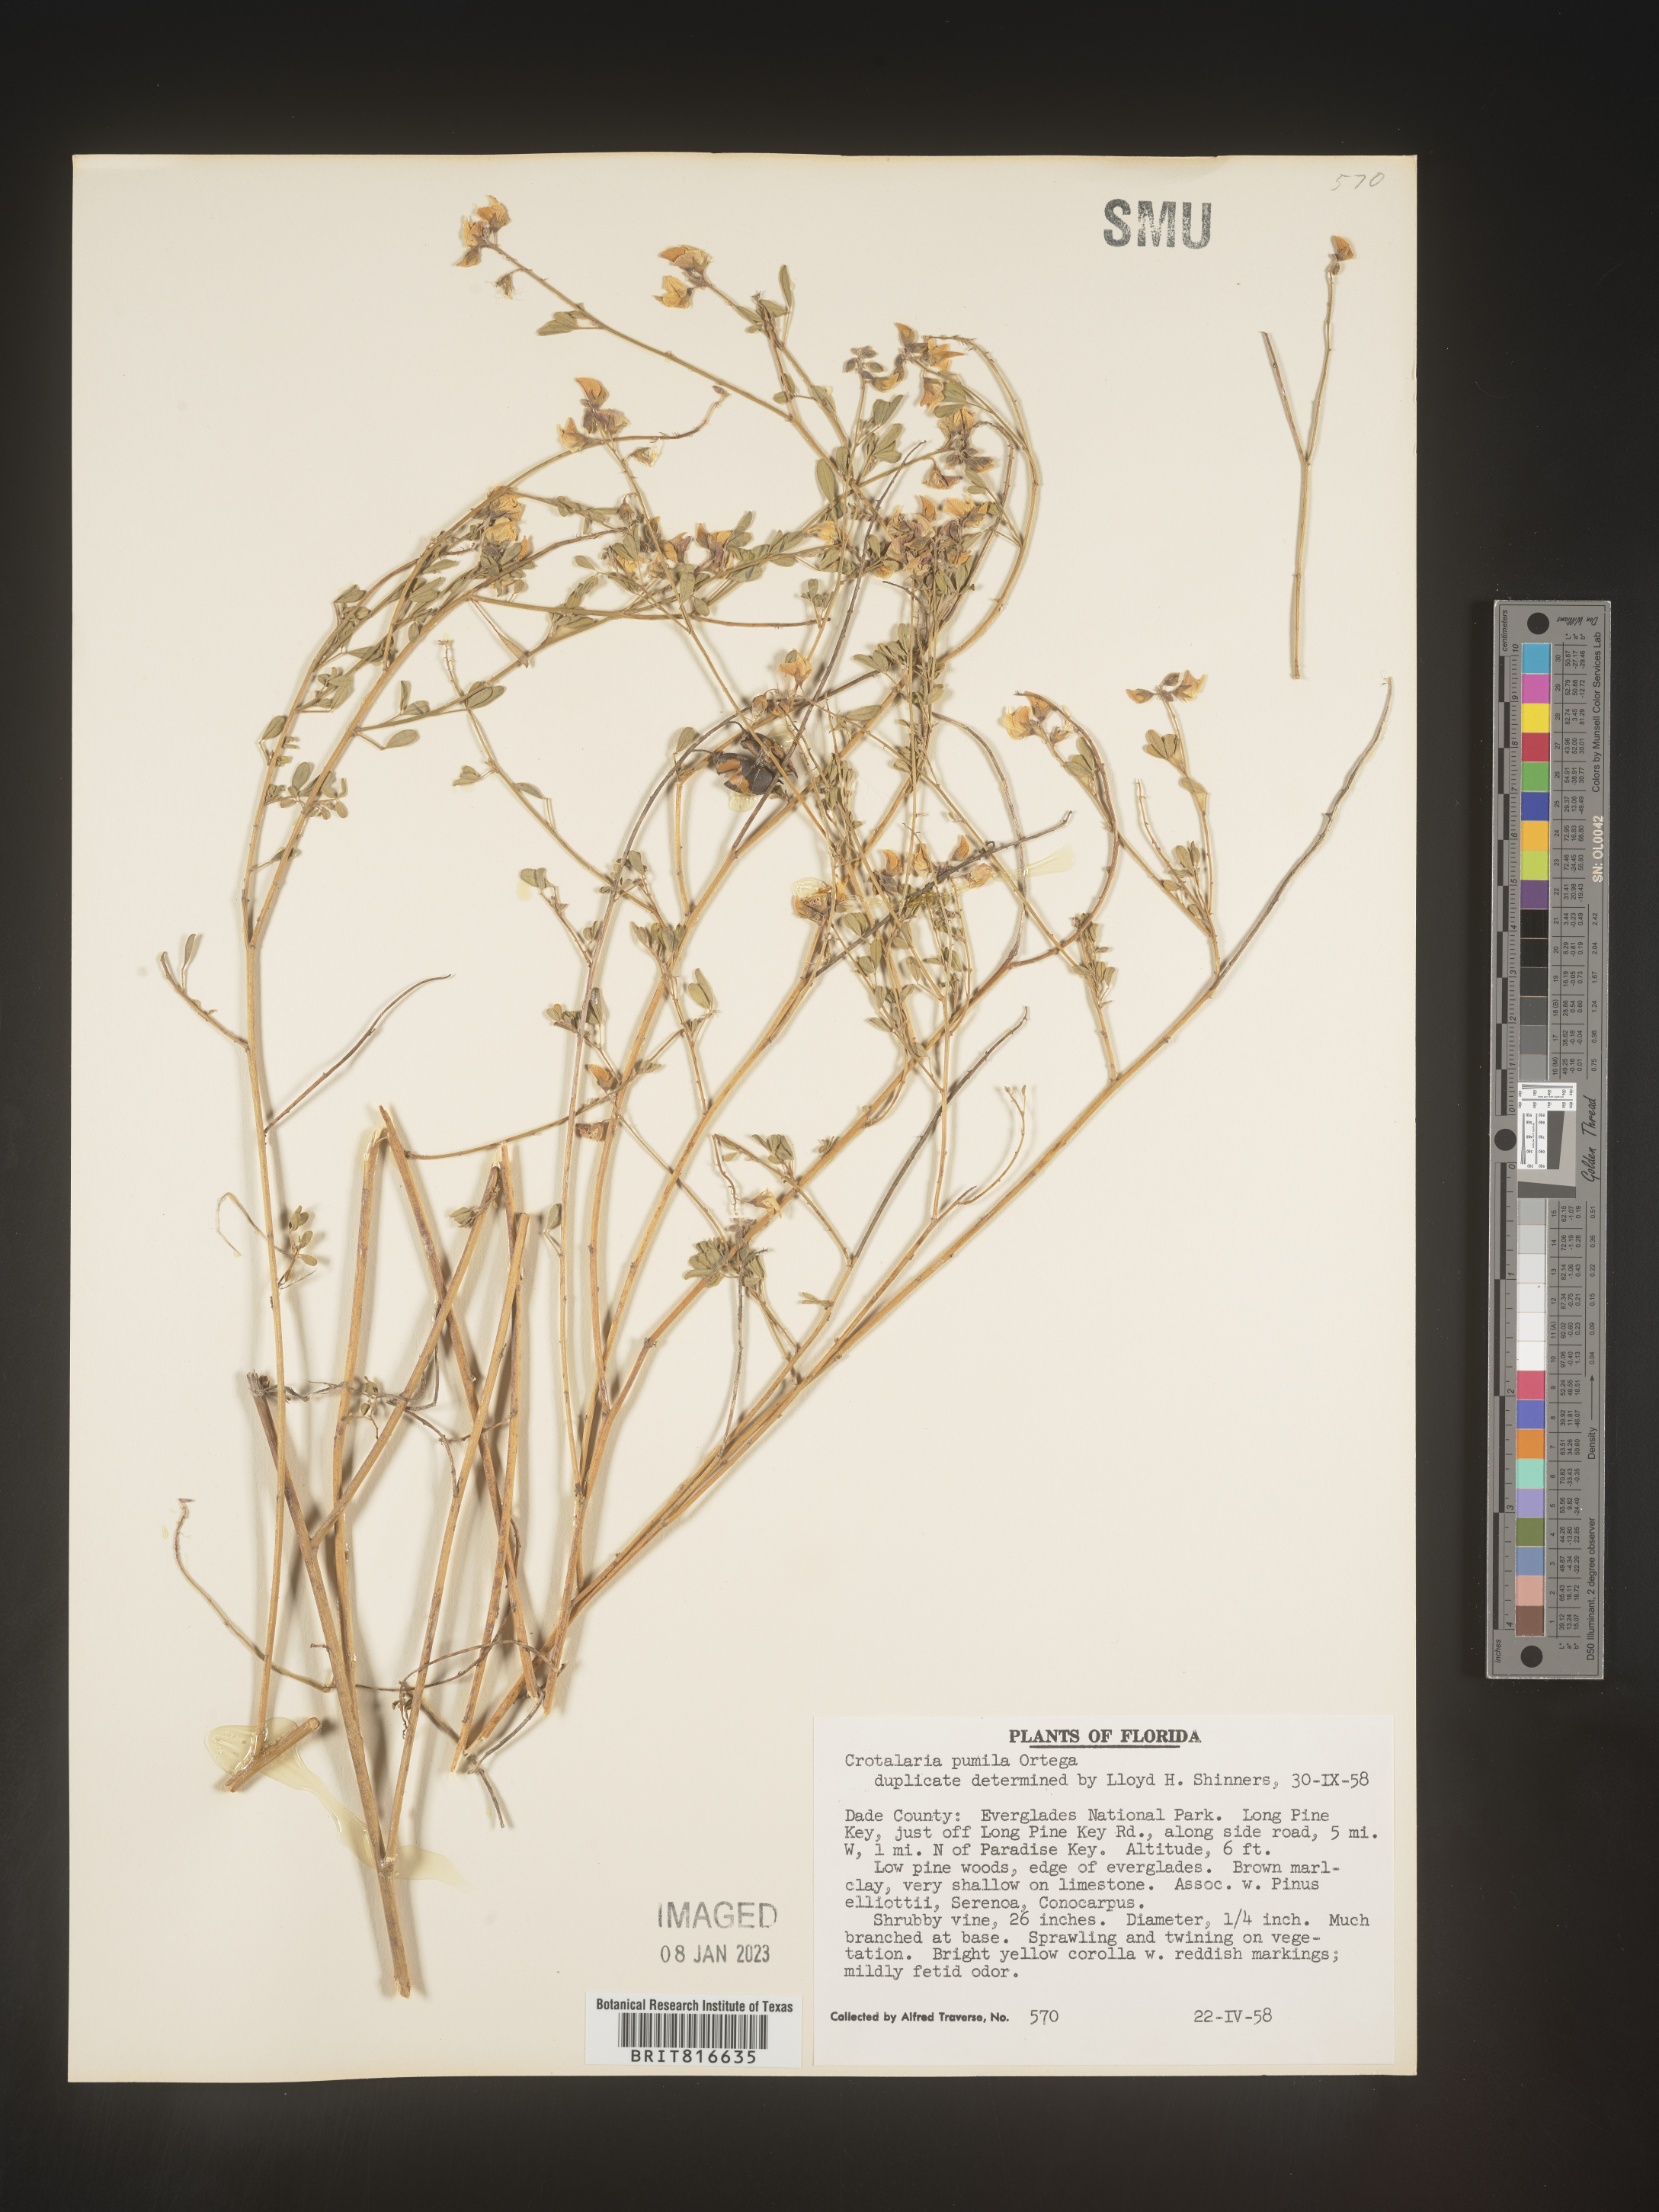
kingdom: Plantae
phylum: Tracheophyta
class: Magnoliopsida
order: Fabales
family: Fabaceae
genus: Crotalaria
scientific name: Crotalaria pumila
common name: Low rattlebox
